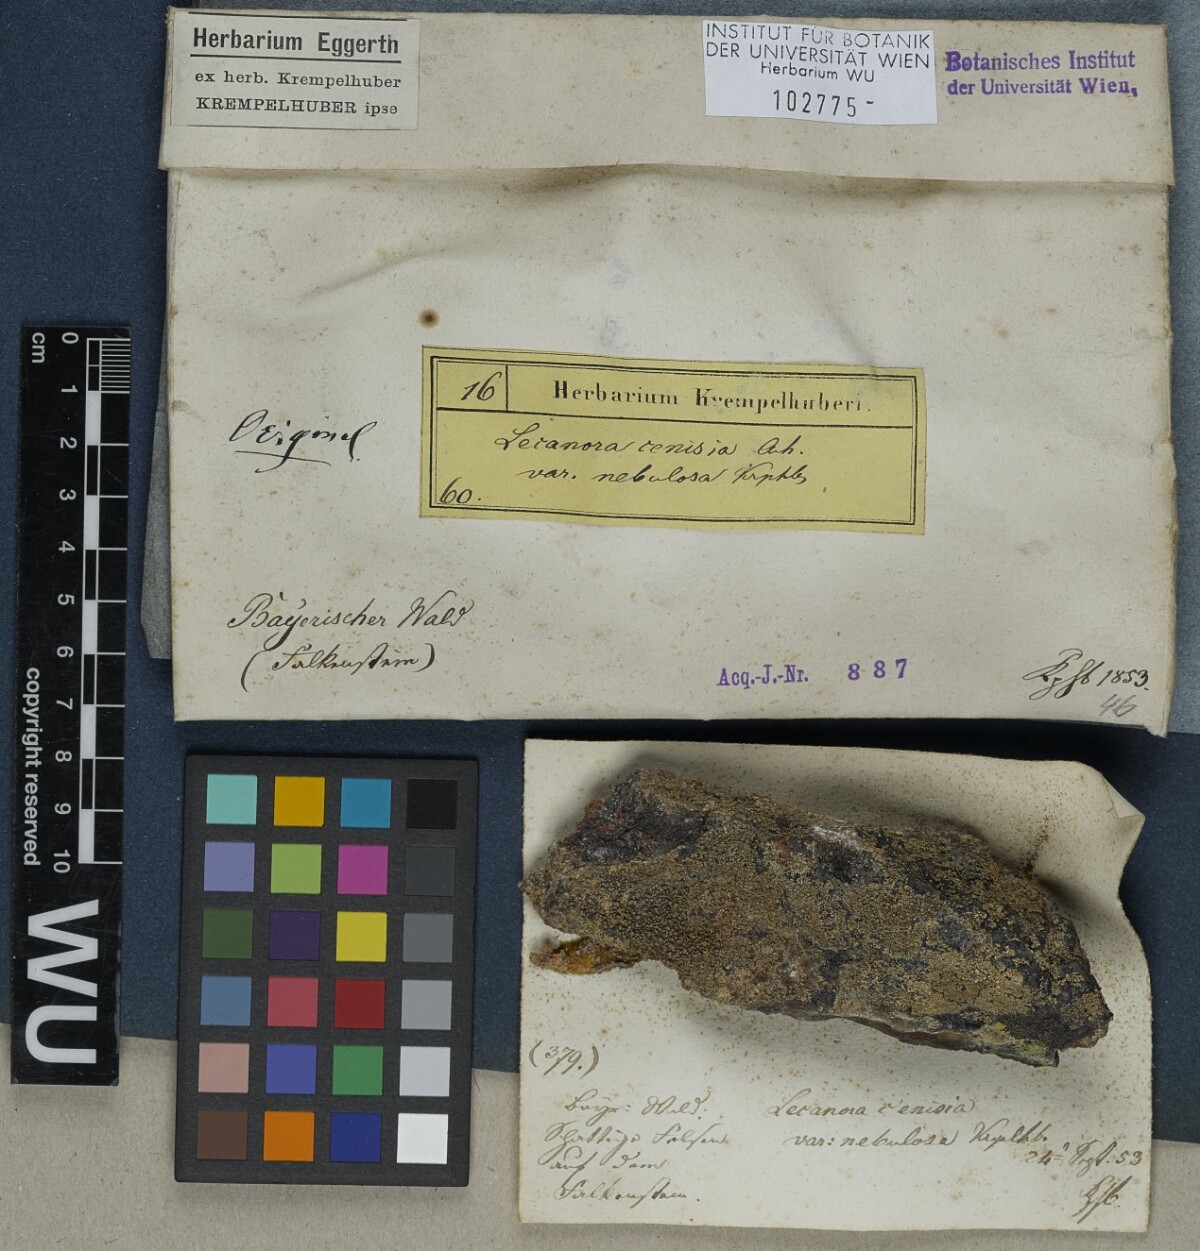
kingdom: Fungi
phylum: Ascomycota
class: Lecanoromycetes
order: Lecanorales
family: Lecanoraceae
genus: Lecanora
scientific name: Lecanora cenisia
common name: Smoky rim lichen
